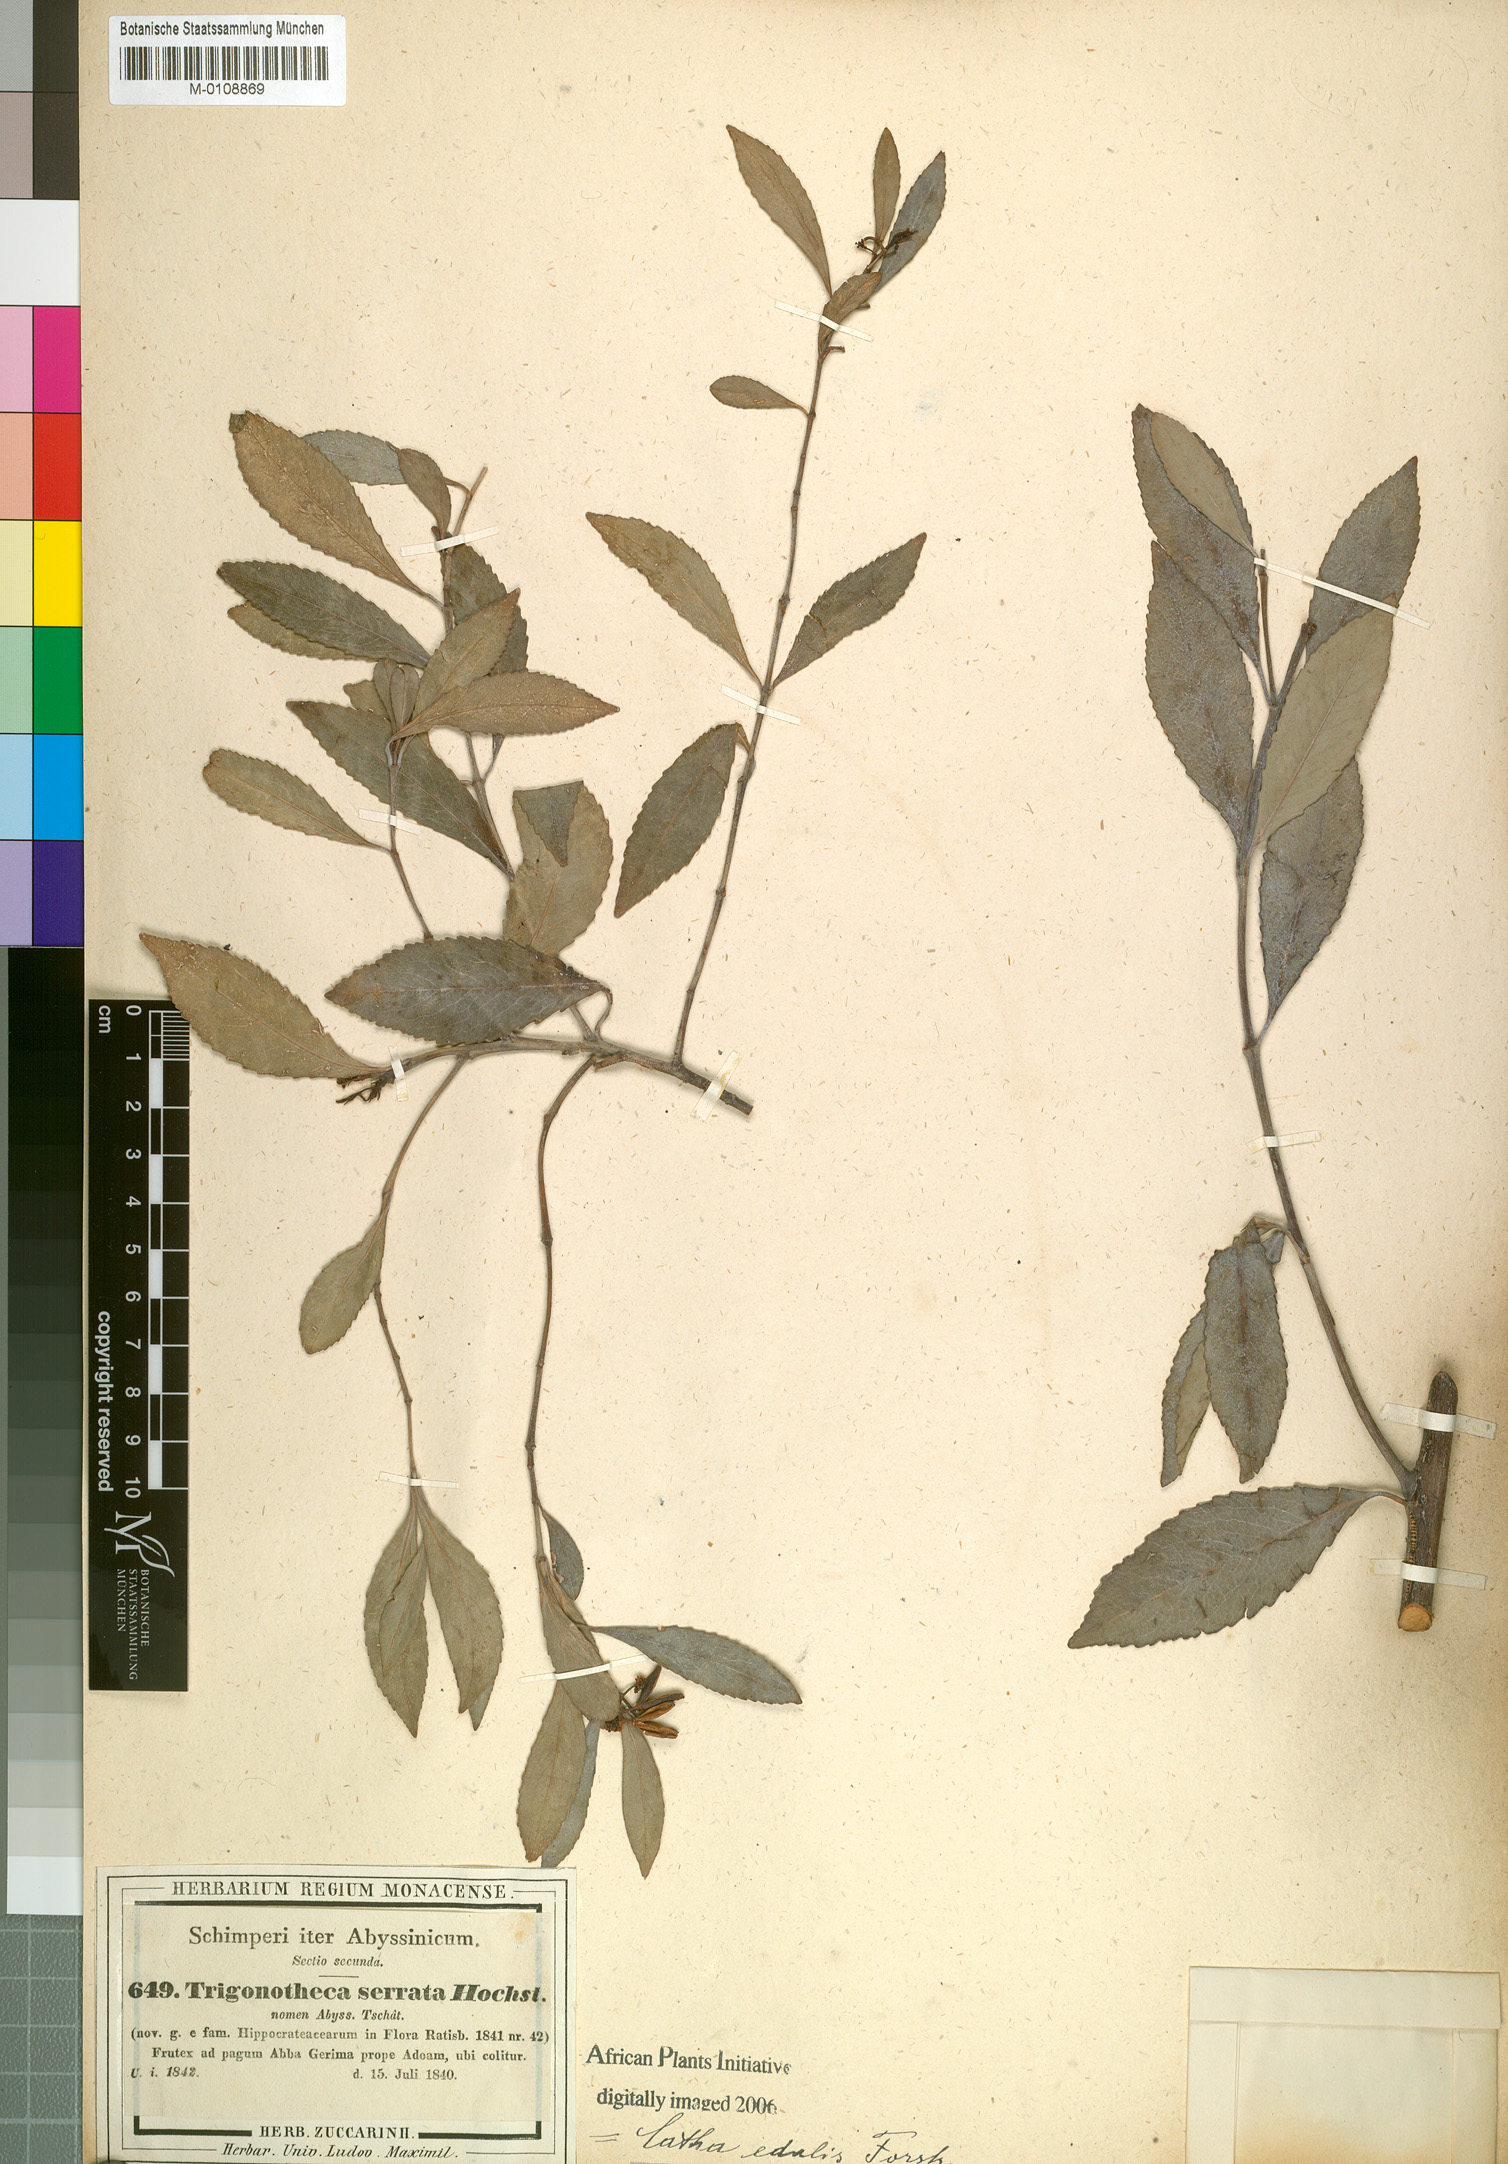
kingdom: Plantae
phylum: Tracheophyta
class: Magnoliopsida
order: Celastrales
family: Celastraceae
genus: Catha
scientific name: Catha edulis
